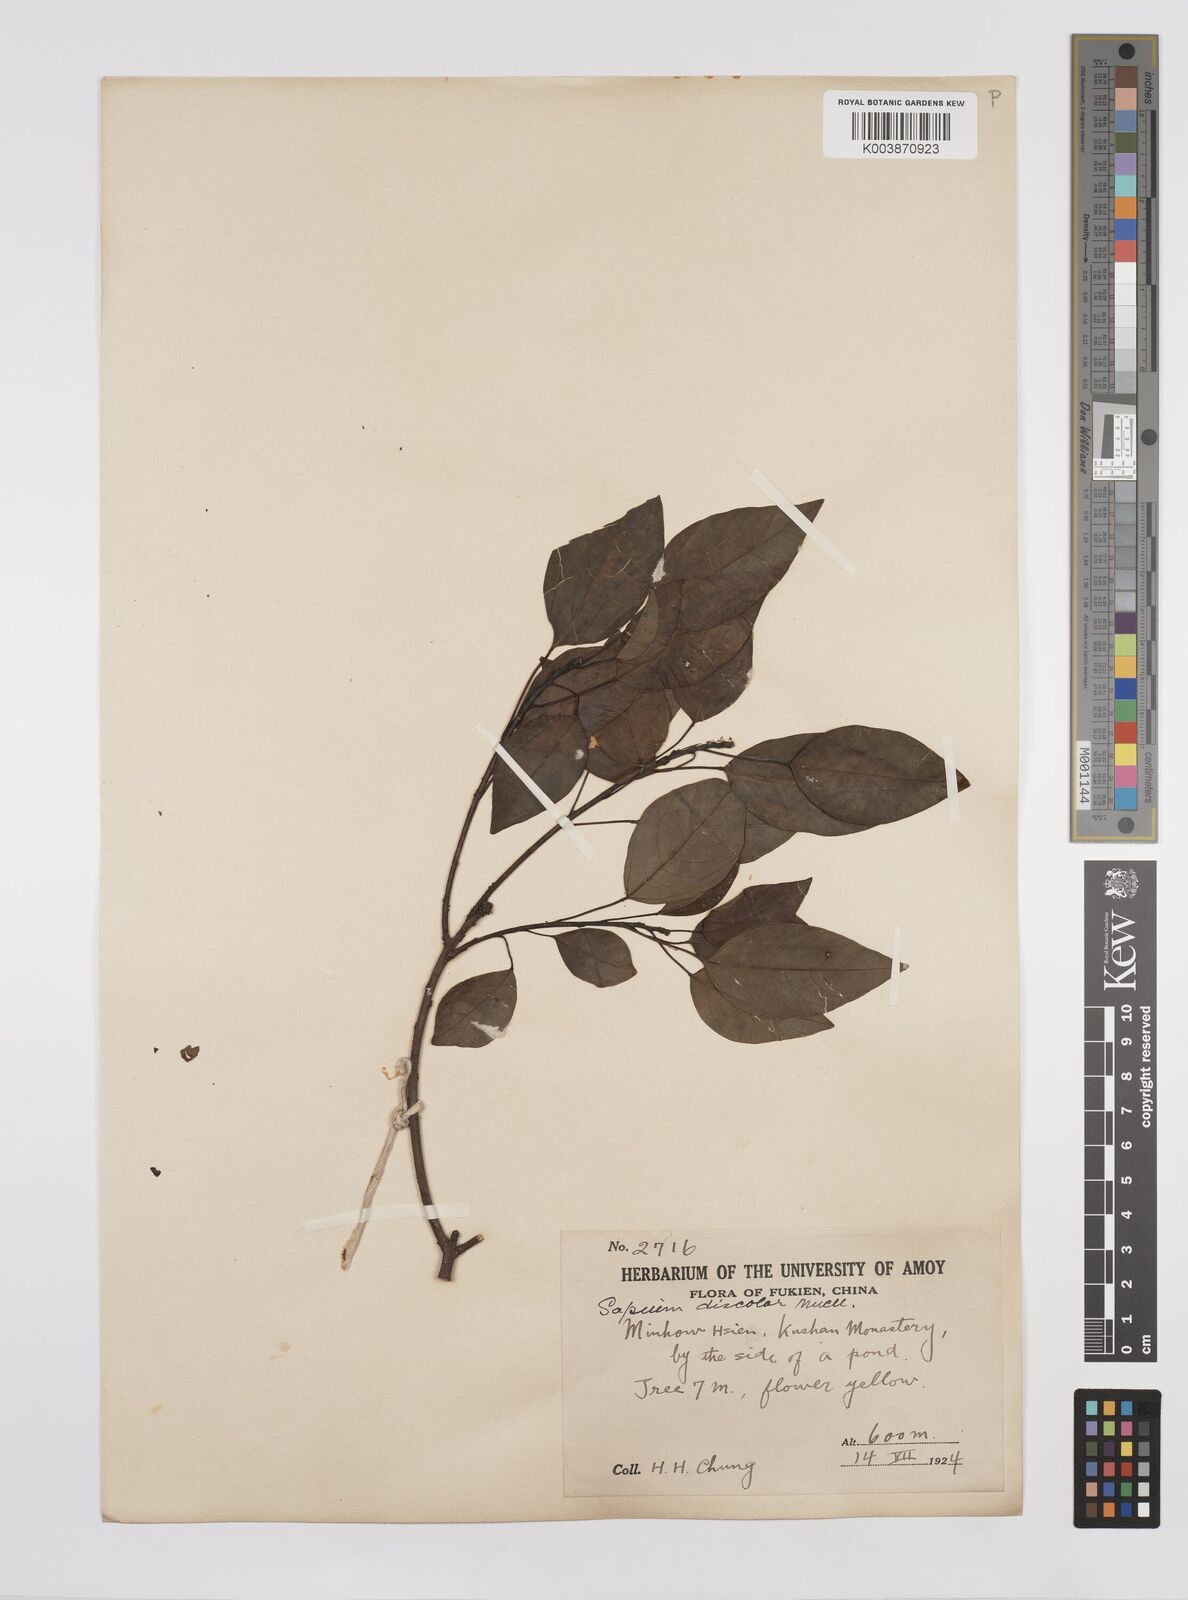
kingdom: Plantae
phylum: Tracheophyta
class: Magnoliopsida
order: Malpighiales
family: Euphorbiaceae
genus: Triadica
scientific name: Triadica cochinchinensis
